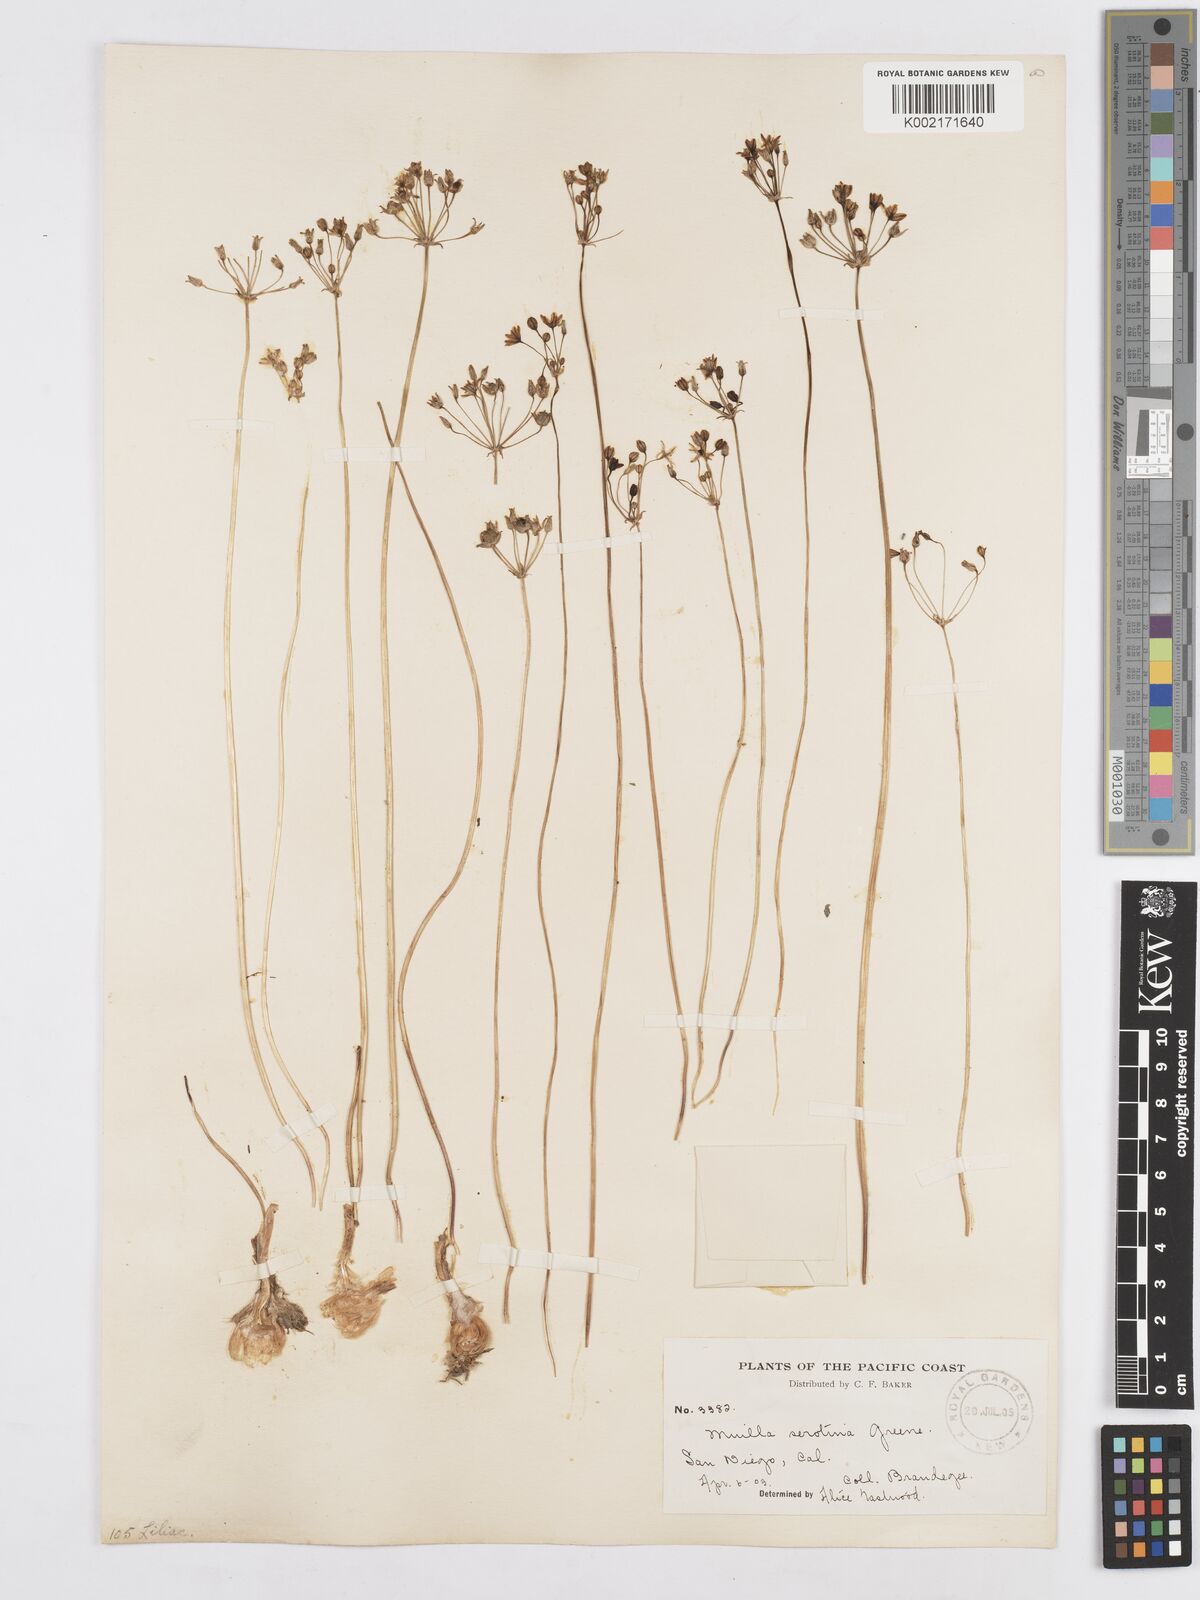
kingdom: Plantae
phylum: Tracheophyta
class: Liliopsida
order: Asparagales
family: Asparagaceae
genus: Muilla
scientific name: Muilla maritima
